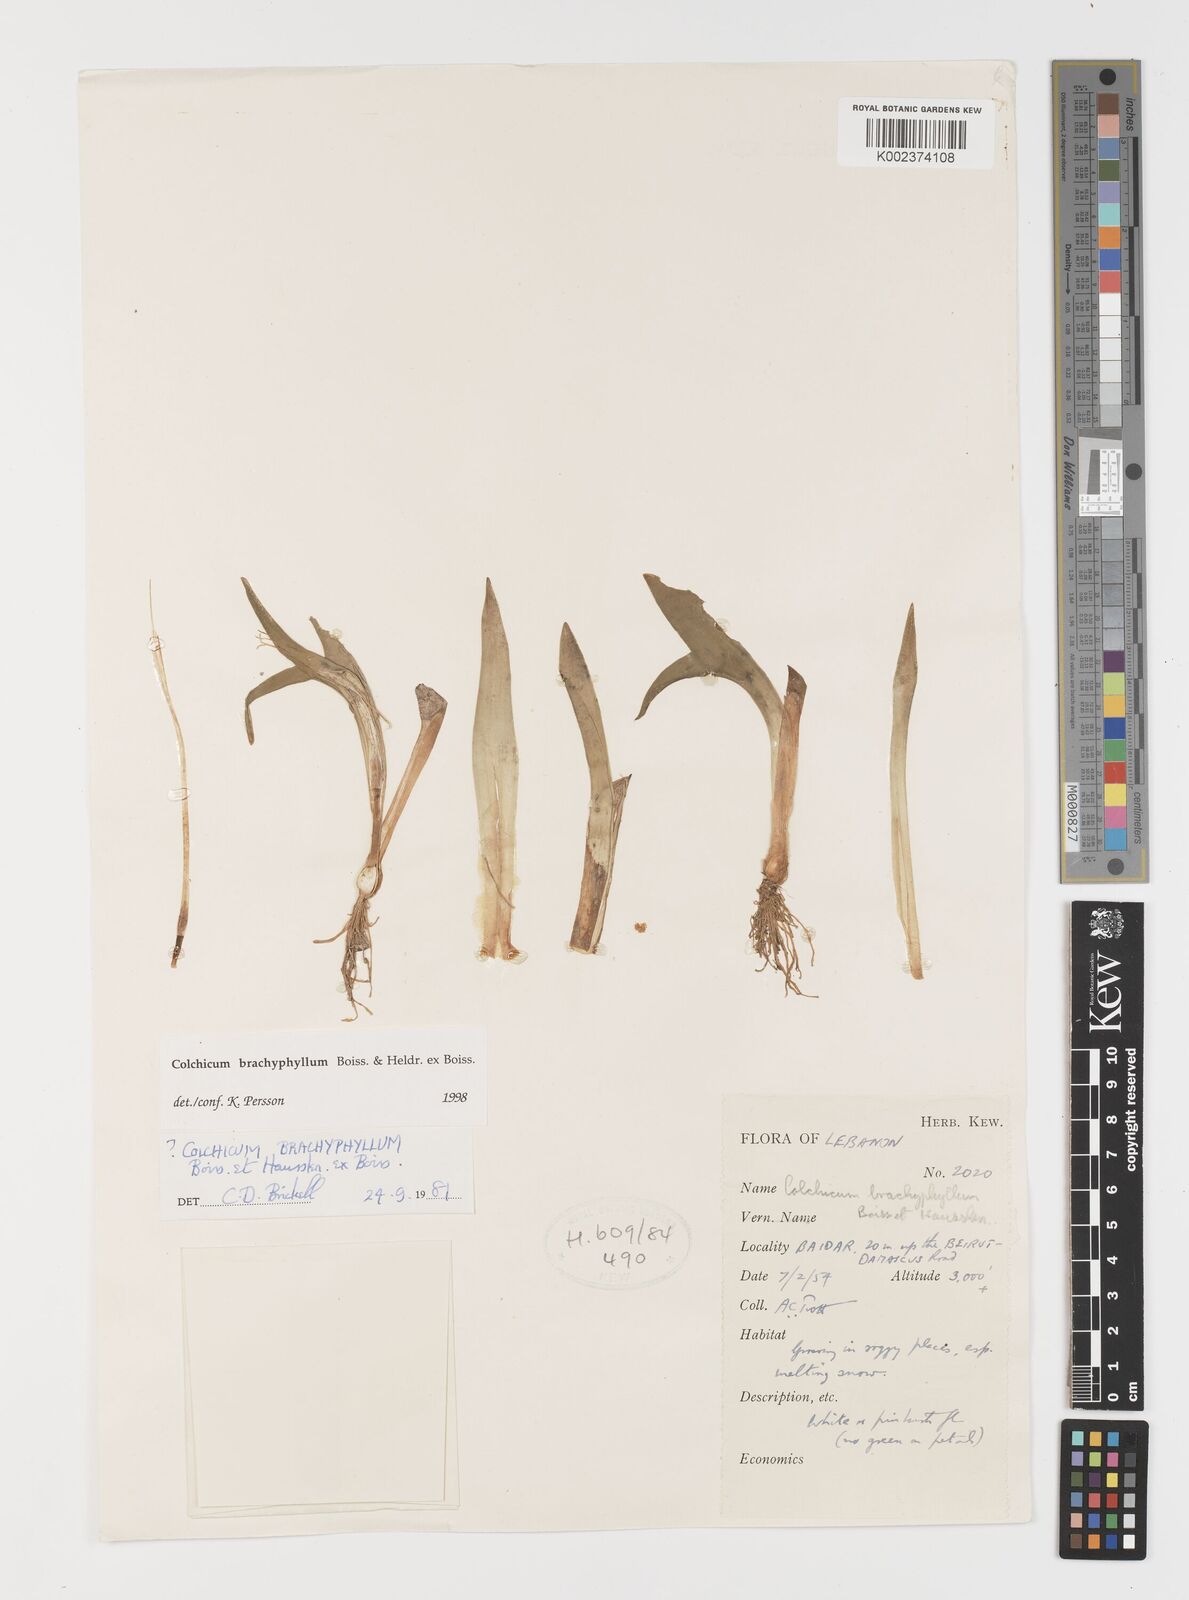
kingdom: Plantae
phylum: Tracheophyta
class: Liliopsida
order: Liliales
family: Colchicaceae
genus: Colchicum
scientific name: Colchicum szovitsii
